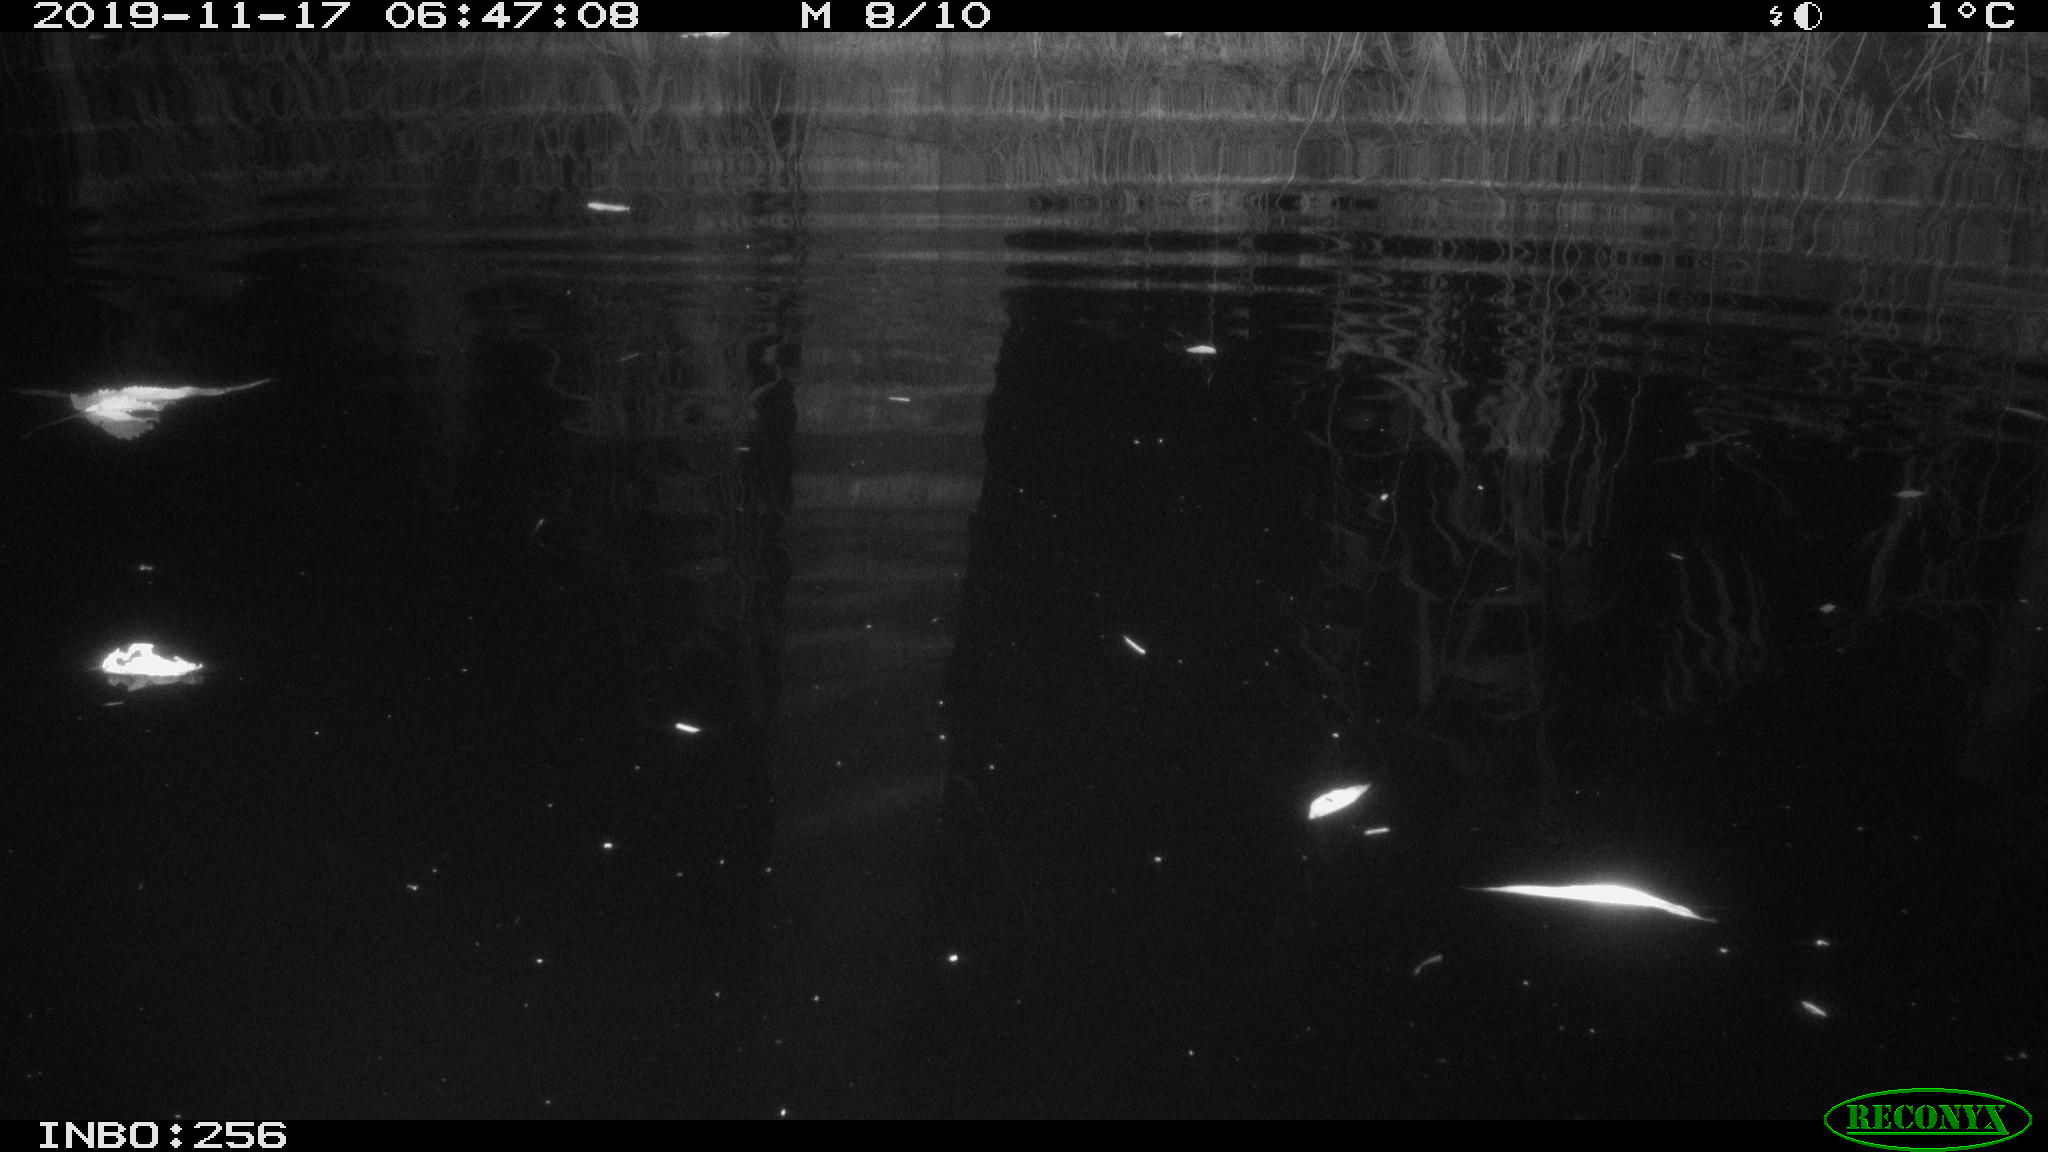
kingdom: Animalia
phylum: Chordata
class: Mammalia
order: Rodentia
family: Muridae
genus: Rattus
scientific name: Rattus norvegicus
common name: Brown rat
